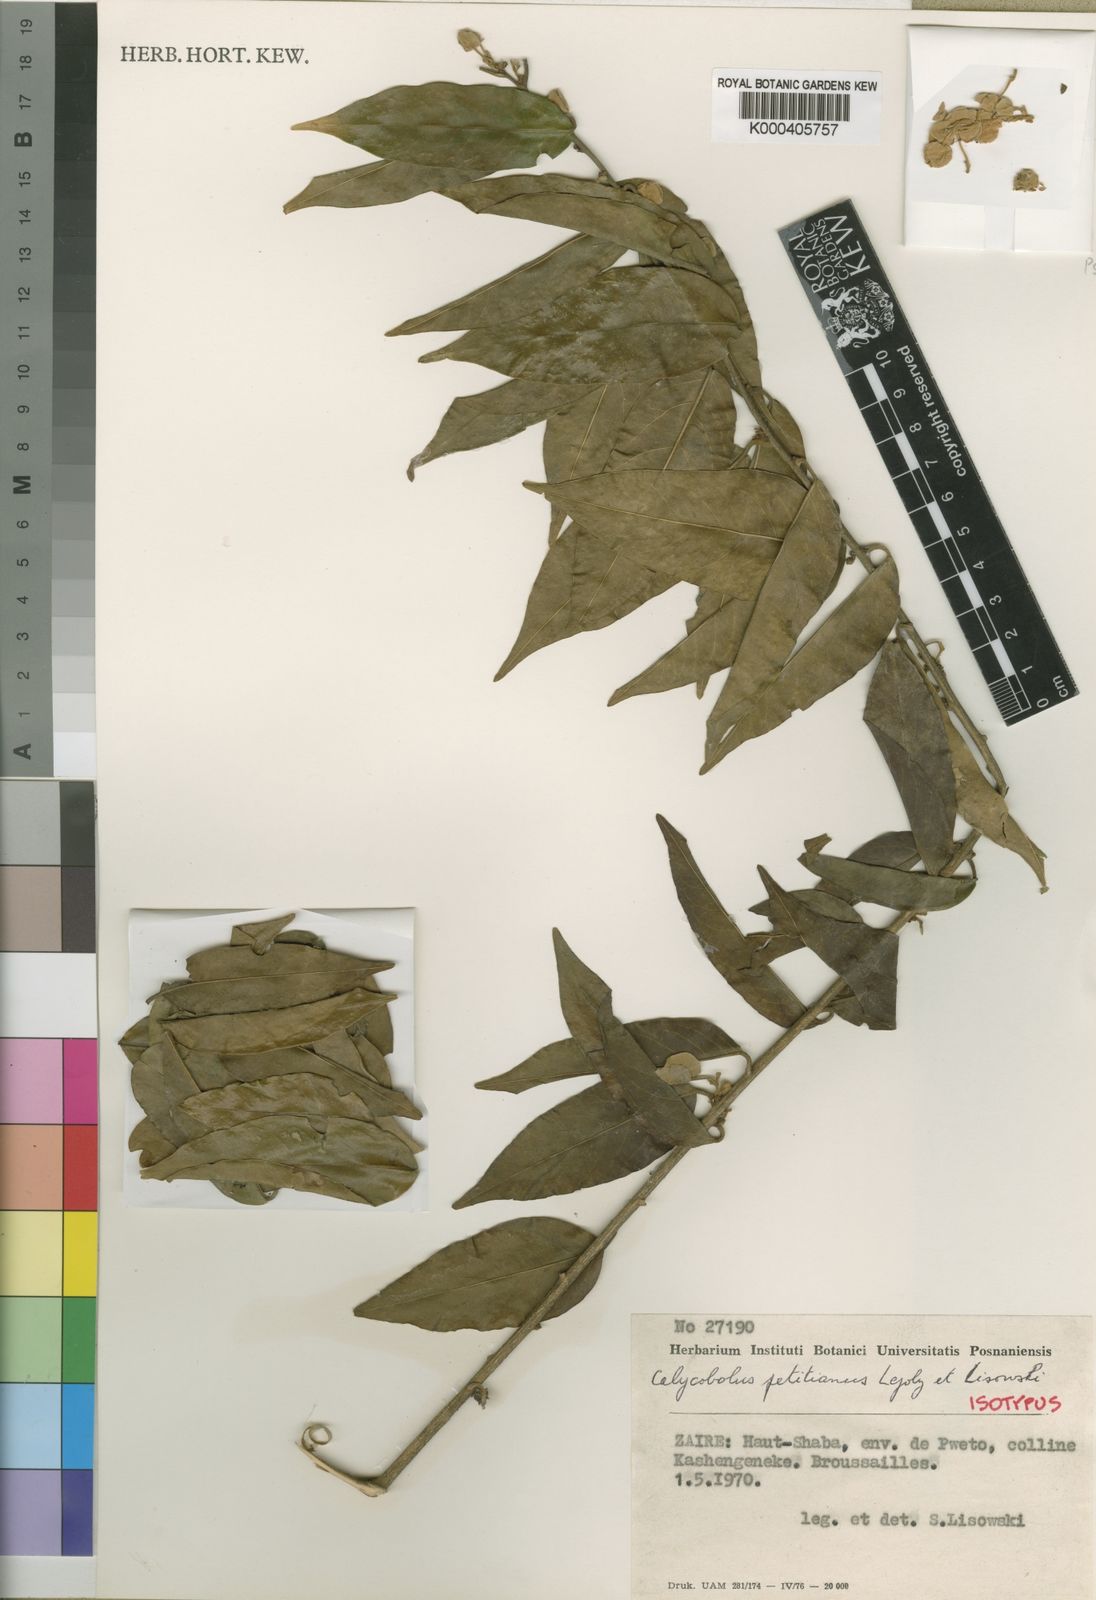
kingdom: Plantae
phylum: Tracheophyta
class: Magnoliopsida
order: Solanales
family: Convolvulaceae
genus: Calycobolus
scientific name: Calycobolus petitianus
